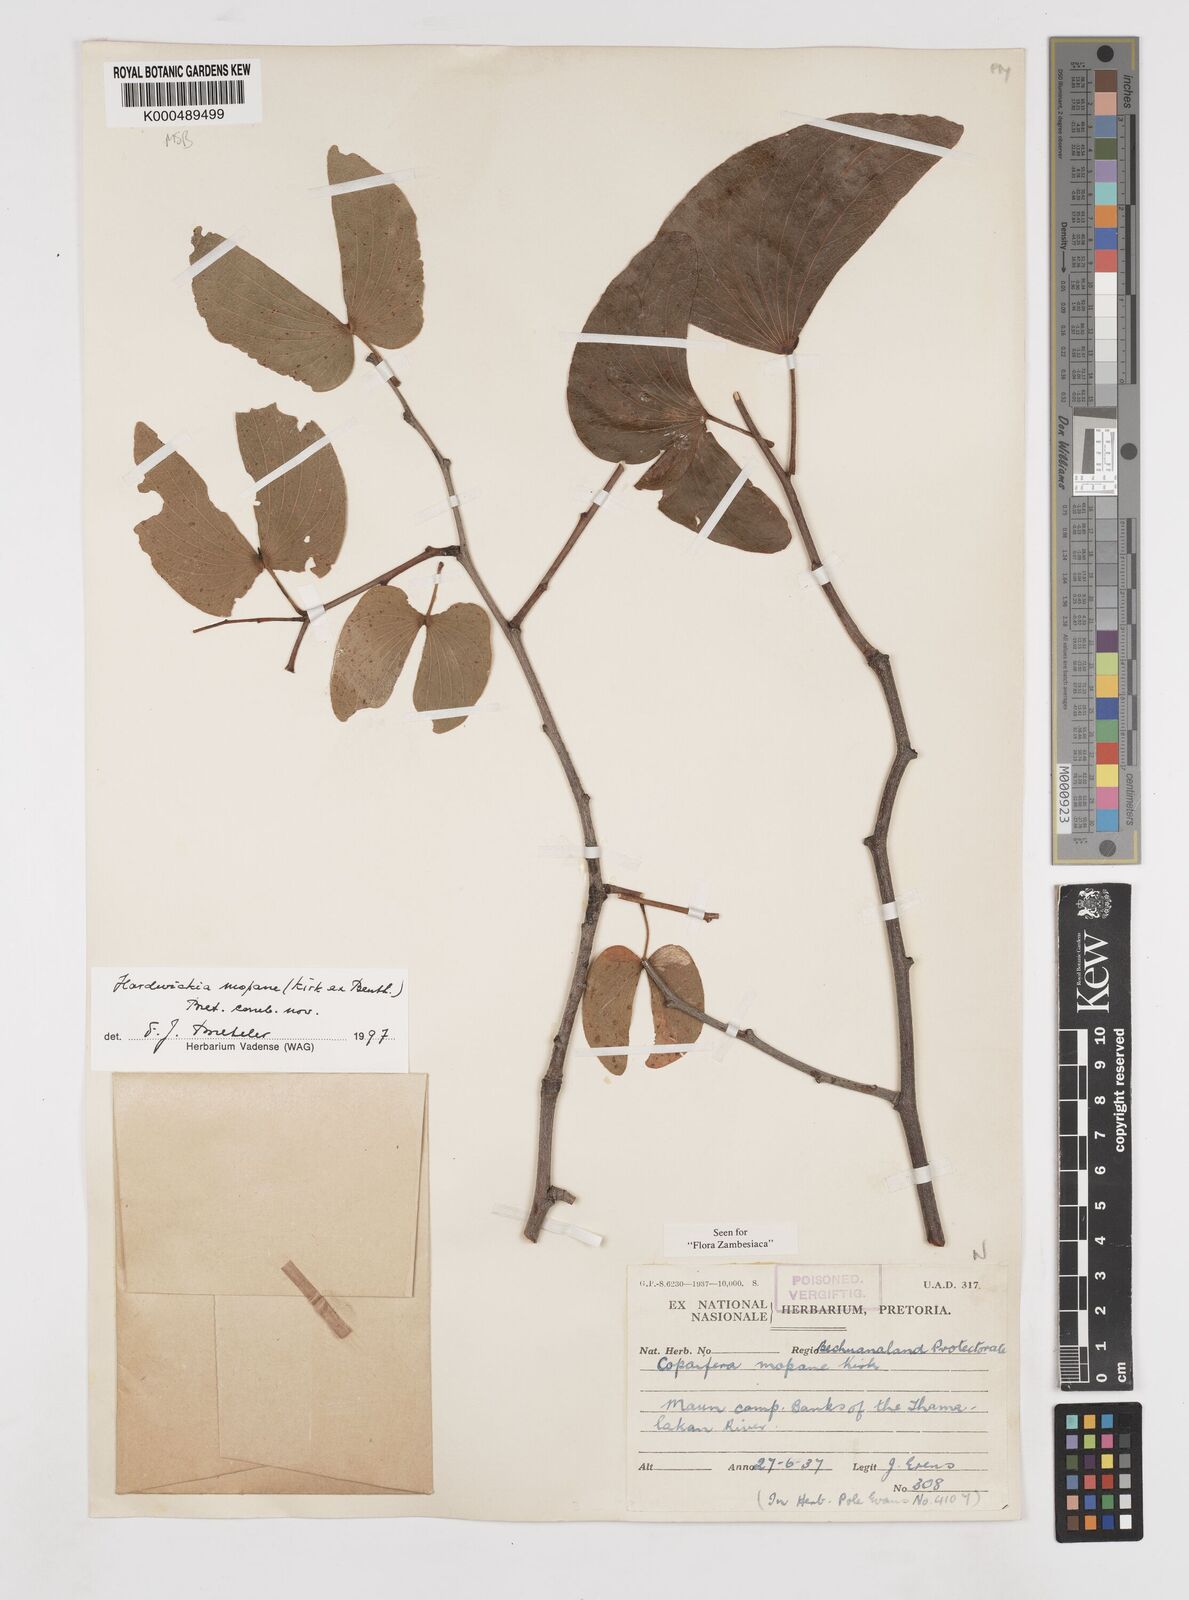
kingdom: Plantae
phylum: Tracheophyta
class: Magnoliopsida
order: Fabales
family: Fabaceae
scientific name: Fabaceae
